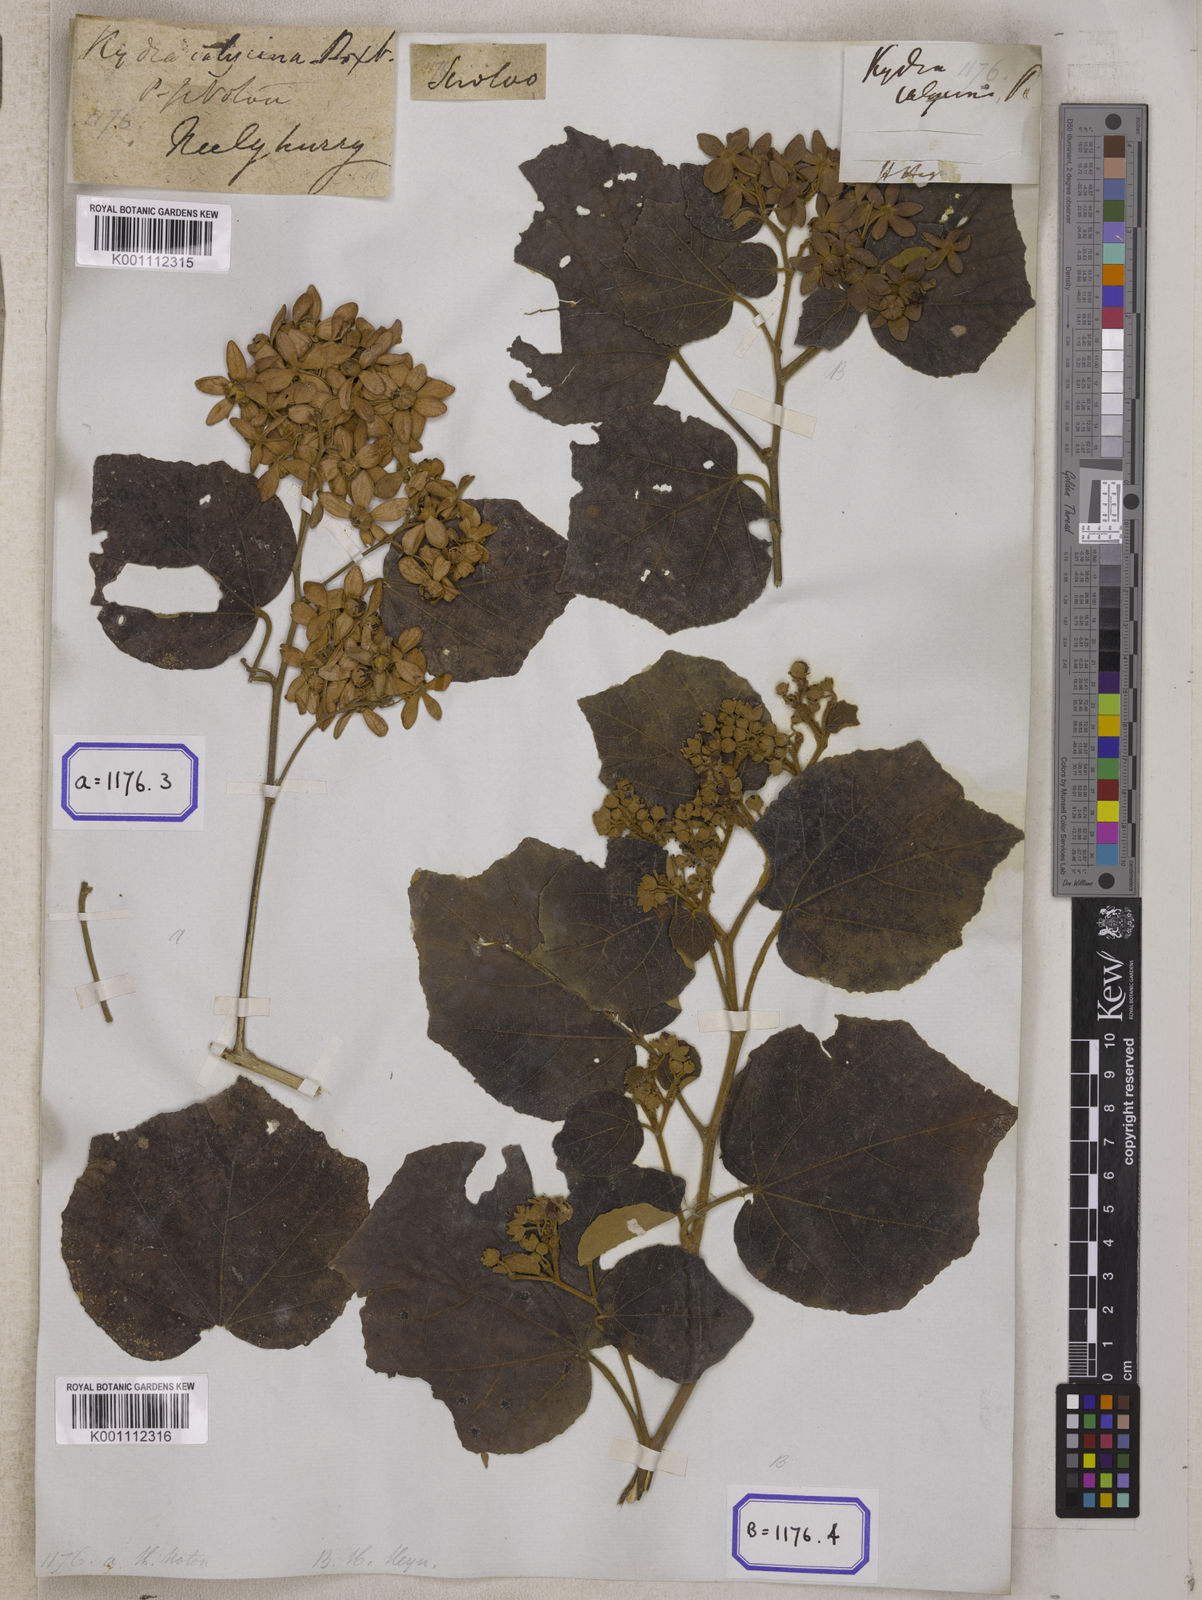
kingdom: Plantae
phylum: Tracheophyta
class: Magnoliopsida
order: Malvales
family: Malvaceae
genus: Kydia
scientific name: Kydia calycina
